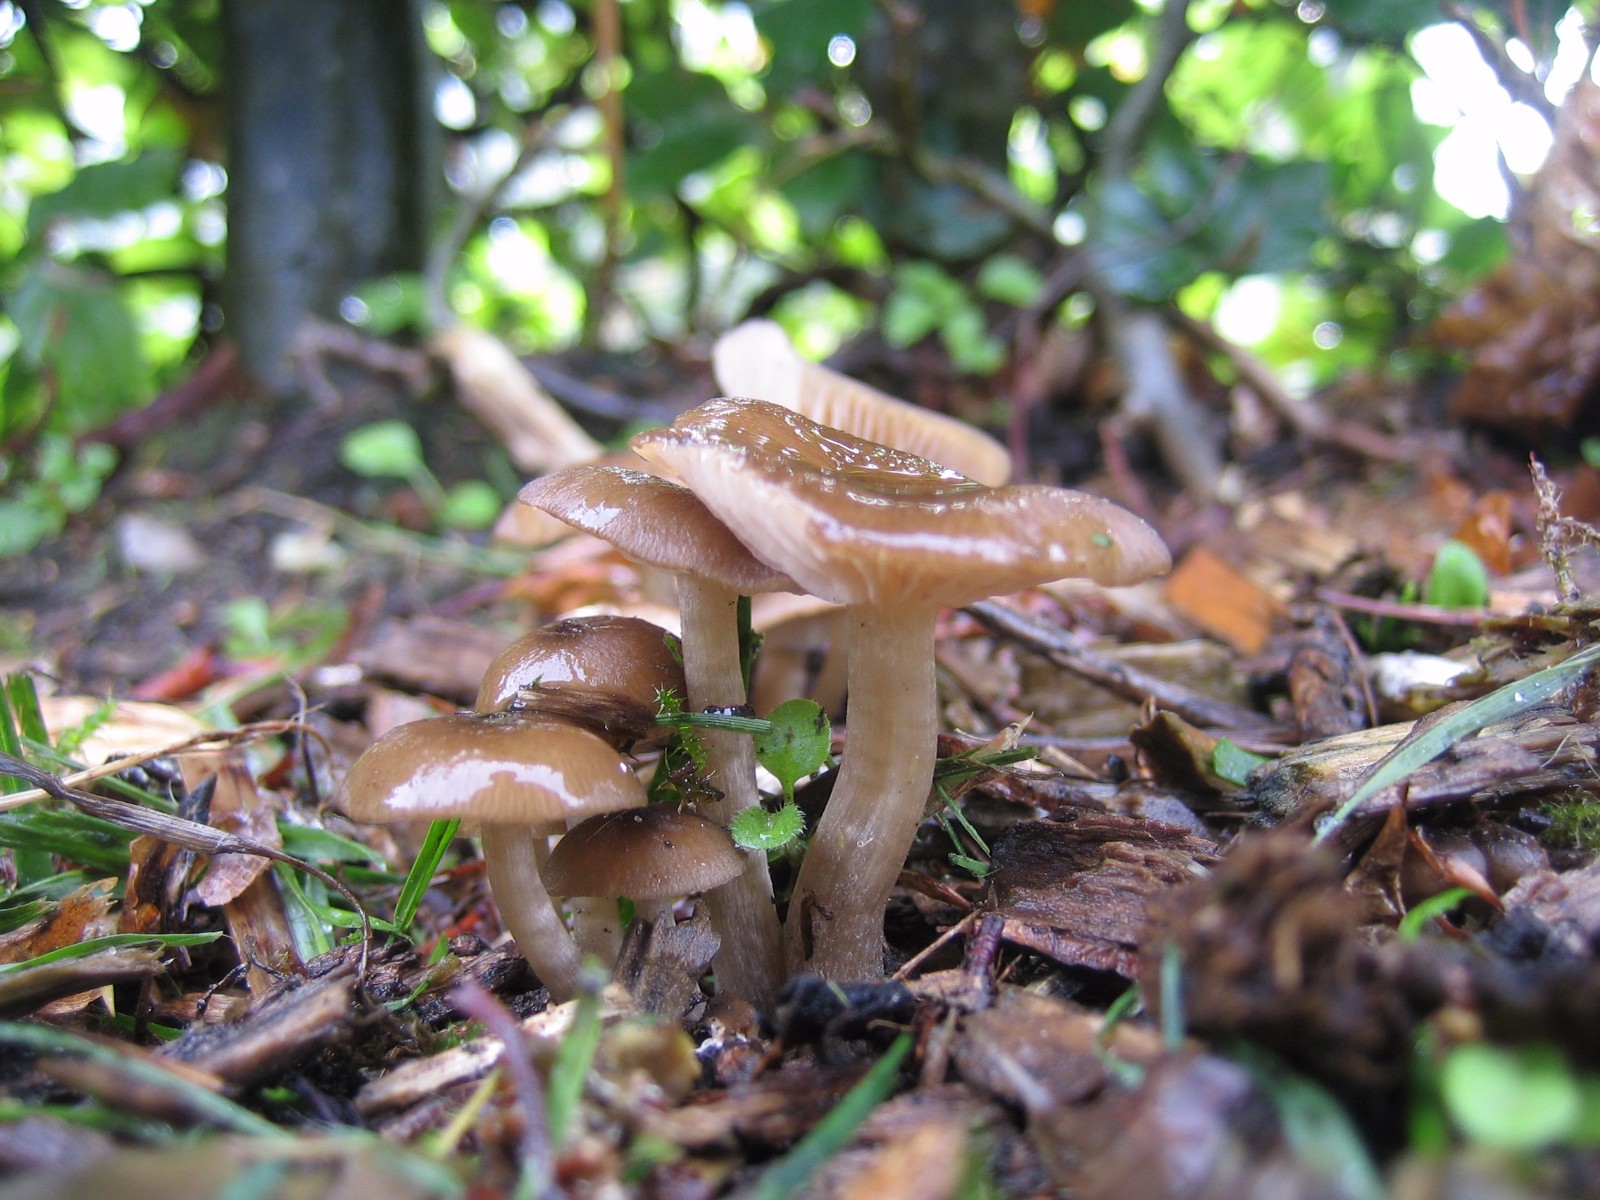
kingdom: Fungi
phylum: Basidiomycota
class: Agaricomycetes
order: Agaricales
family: Entolomataceae
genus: Entoloma
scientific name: Entoloma
